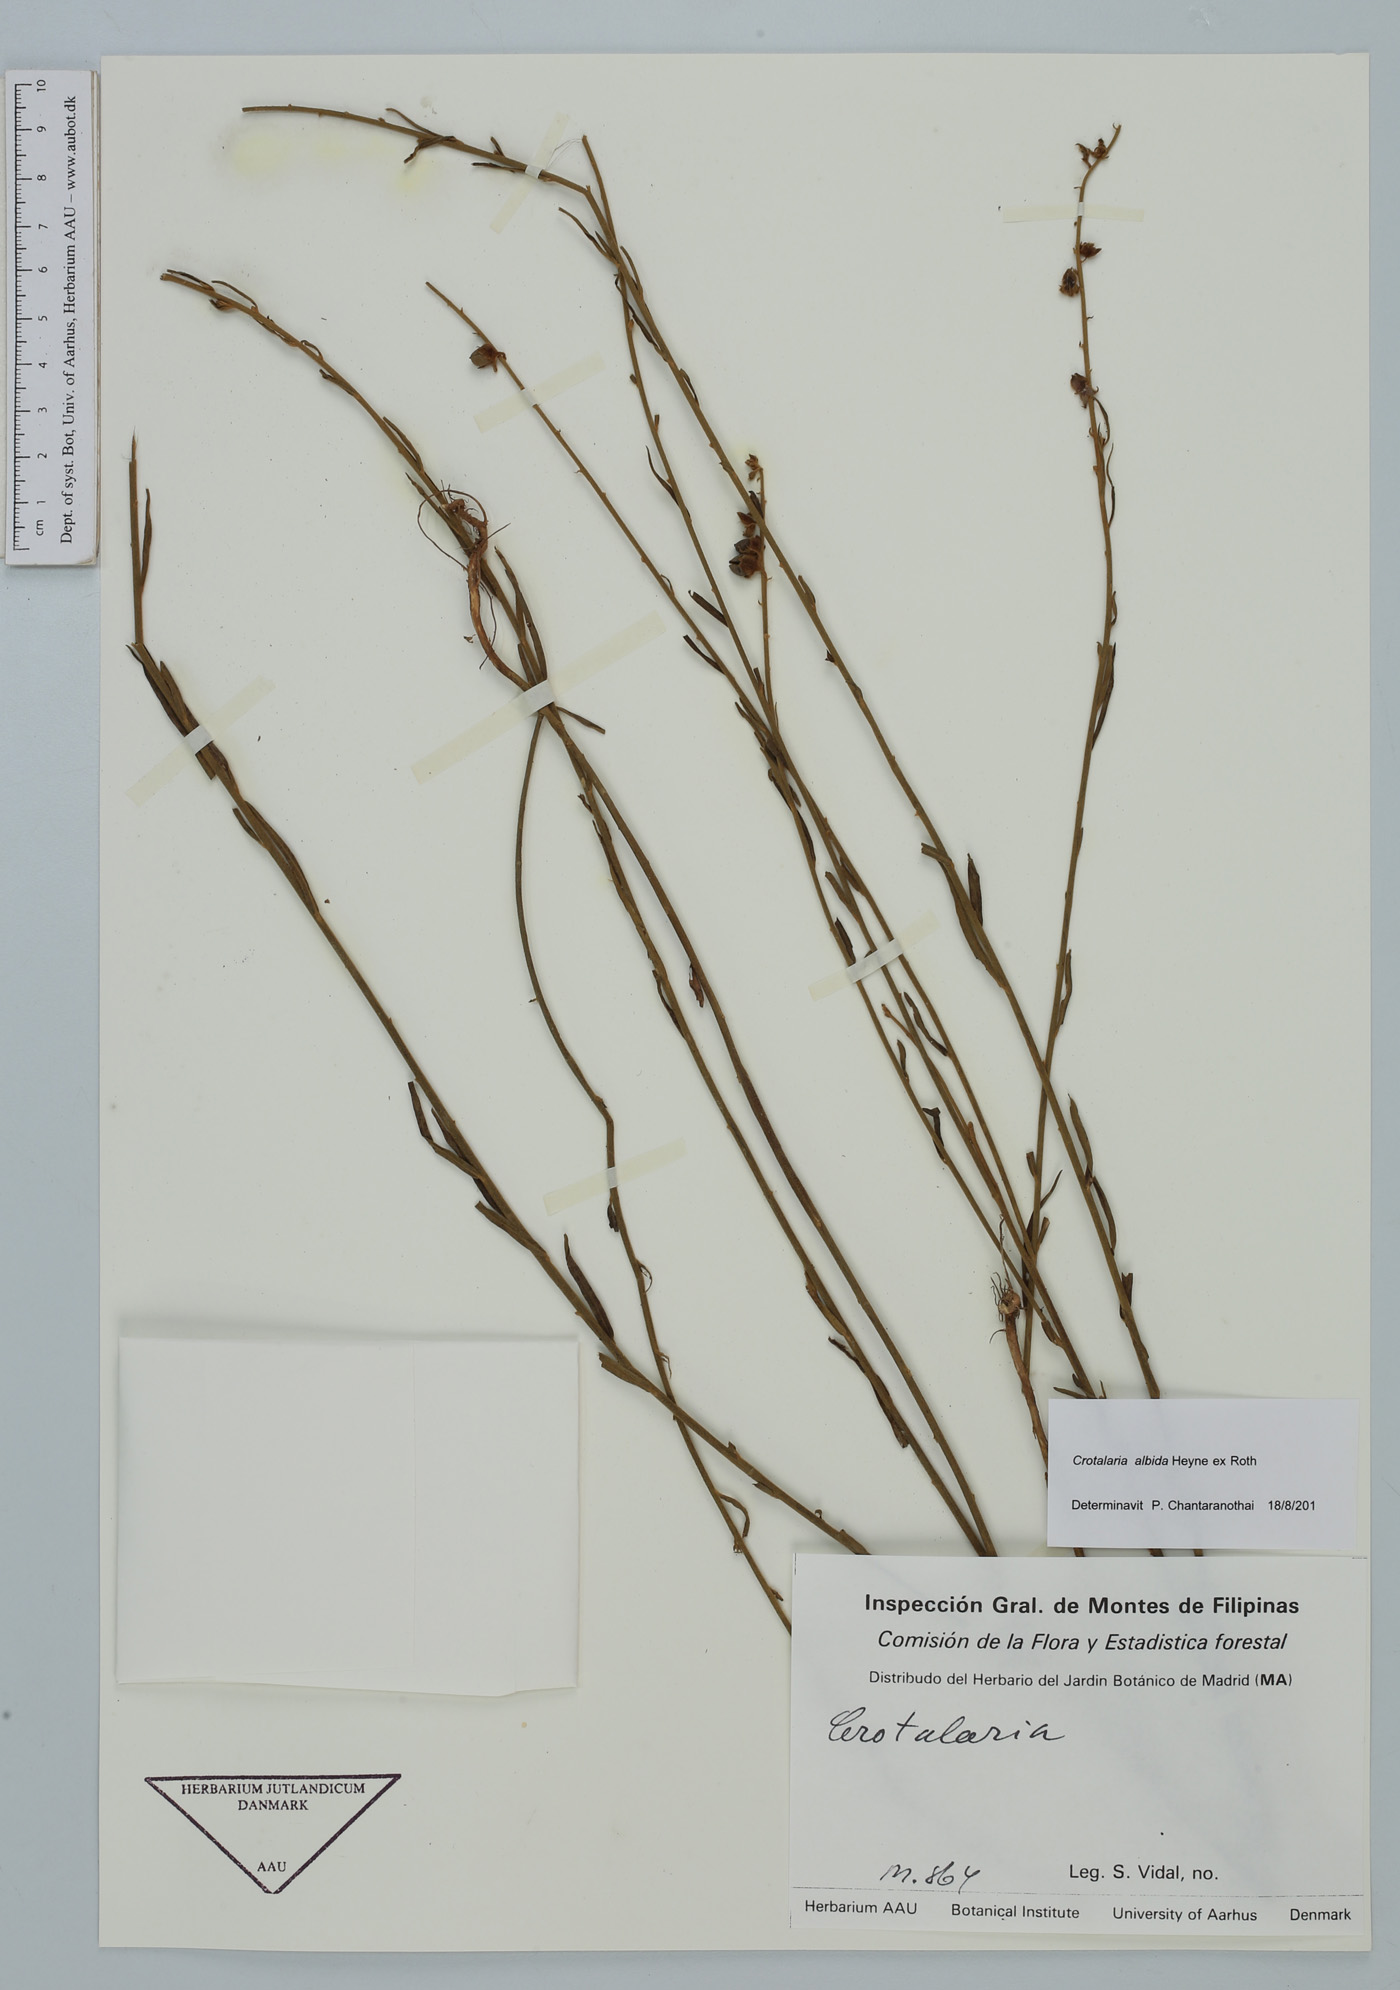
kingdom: Plantae
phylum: Tracheophyta
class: Magnoliopsida
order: Fabales
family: Fabaceae
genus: Crotalaria
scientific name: Crotalaria albida
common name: Taiwan crotalaria
